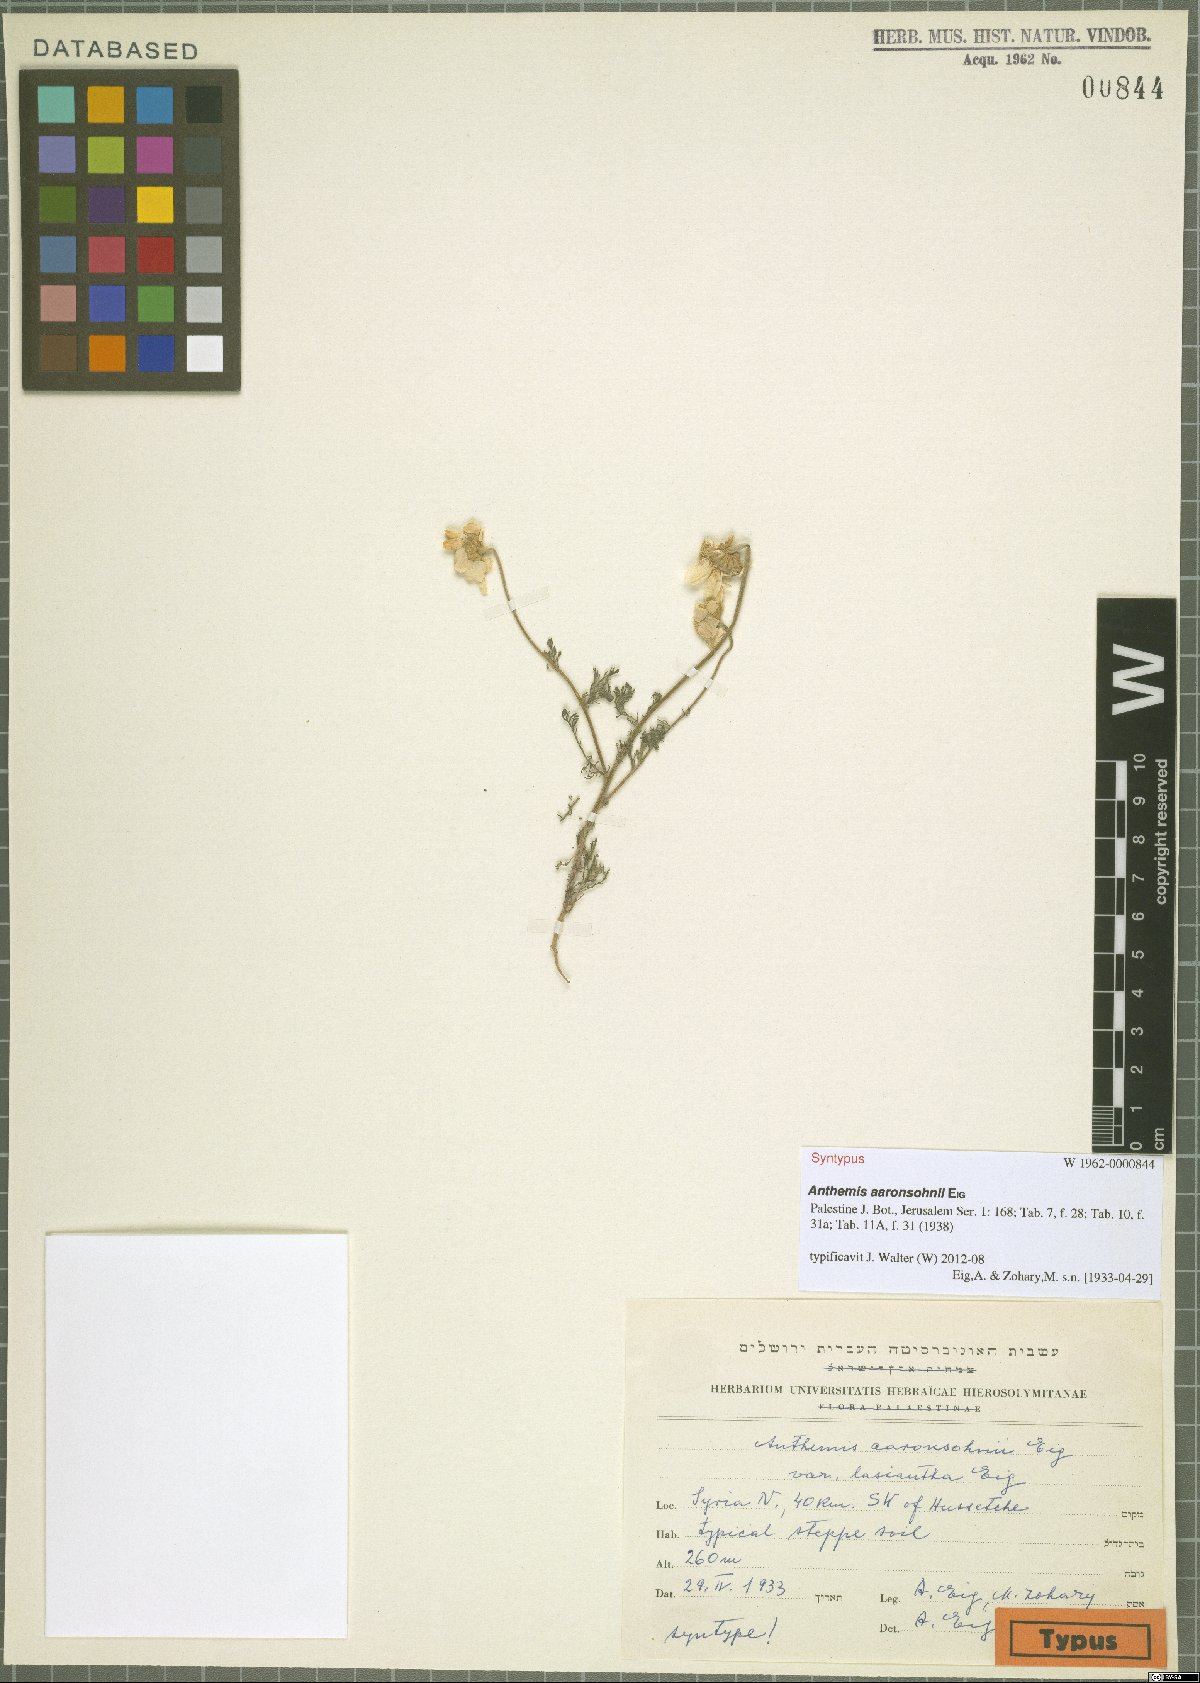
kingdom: Plantae
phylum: Tracheophyta
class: Magnoliopsida
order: Asterales
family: Asteraceae
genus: Anthemis
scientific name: Anthemis aaronsohnii
